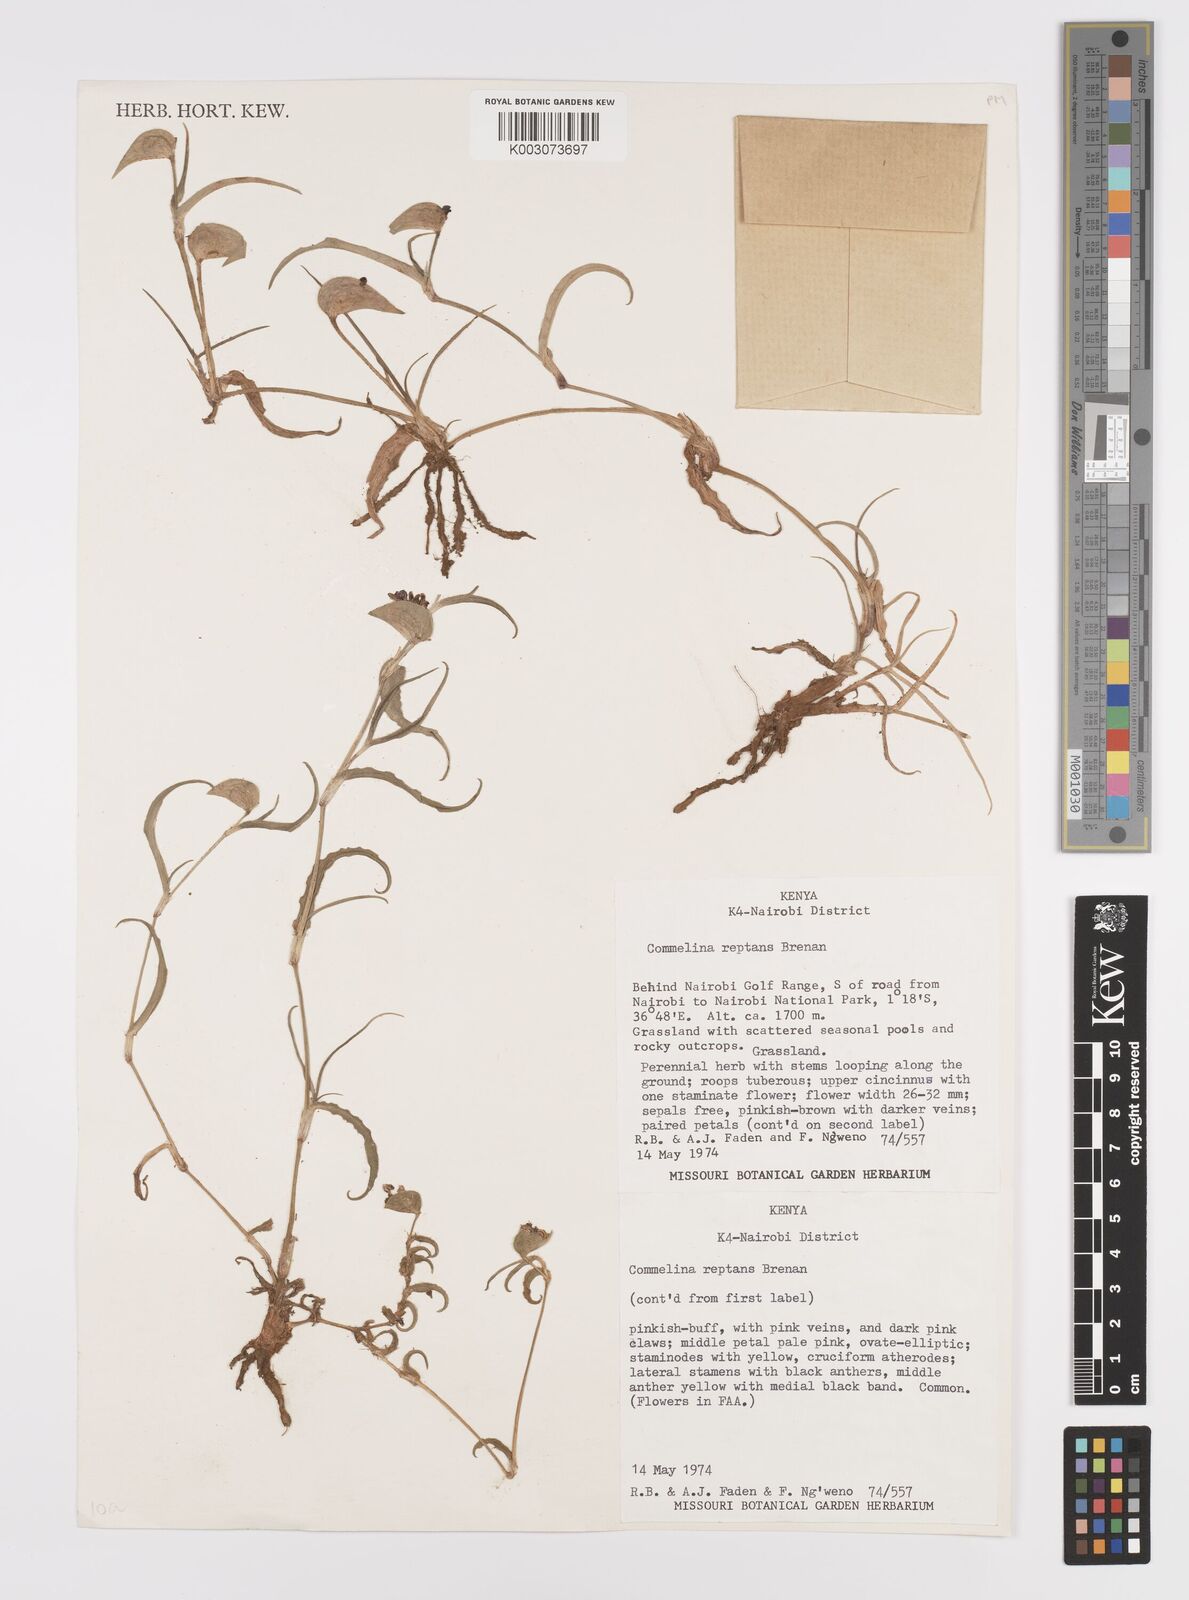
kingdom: Plantae
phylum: Tracheophyta
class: Liliopsida
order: Commelinales
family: Commelinaceae
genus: Commelina
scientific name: Commelina reptans
